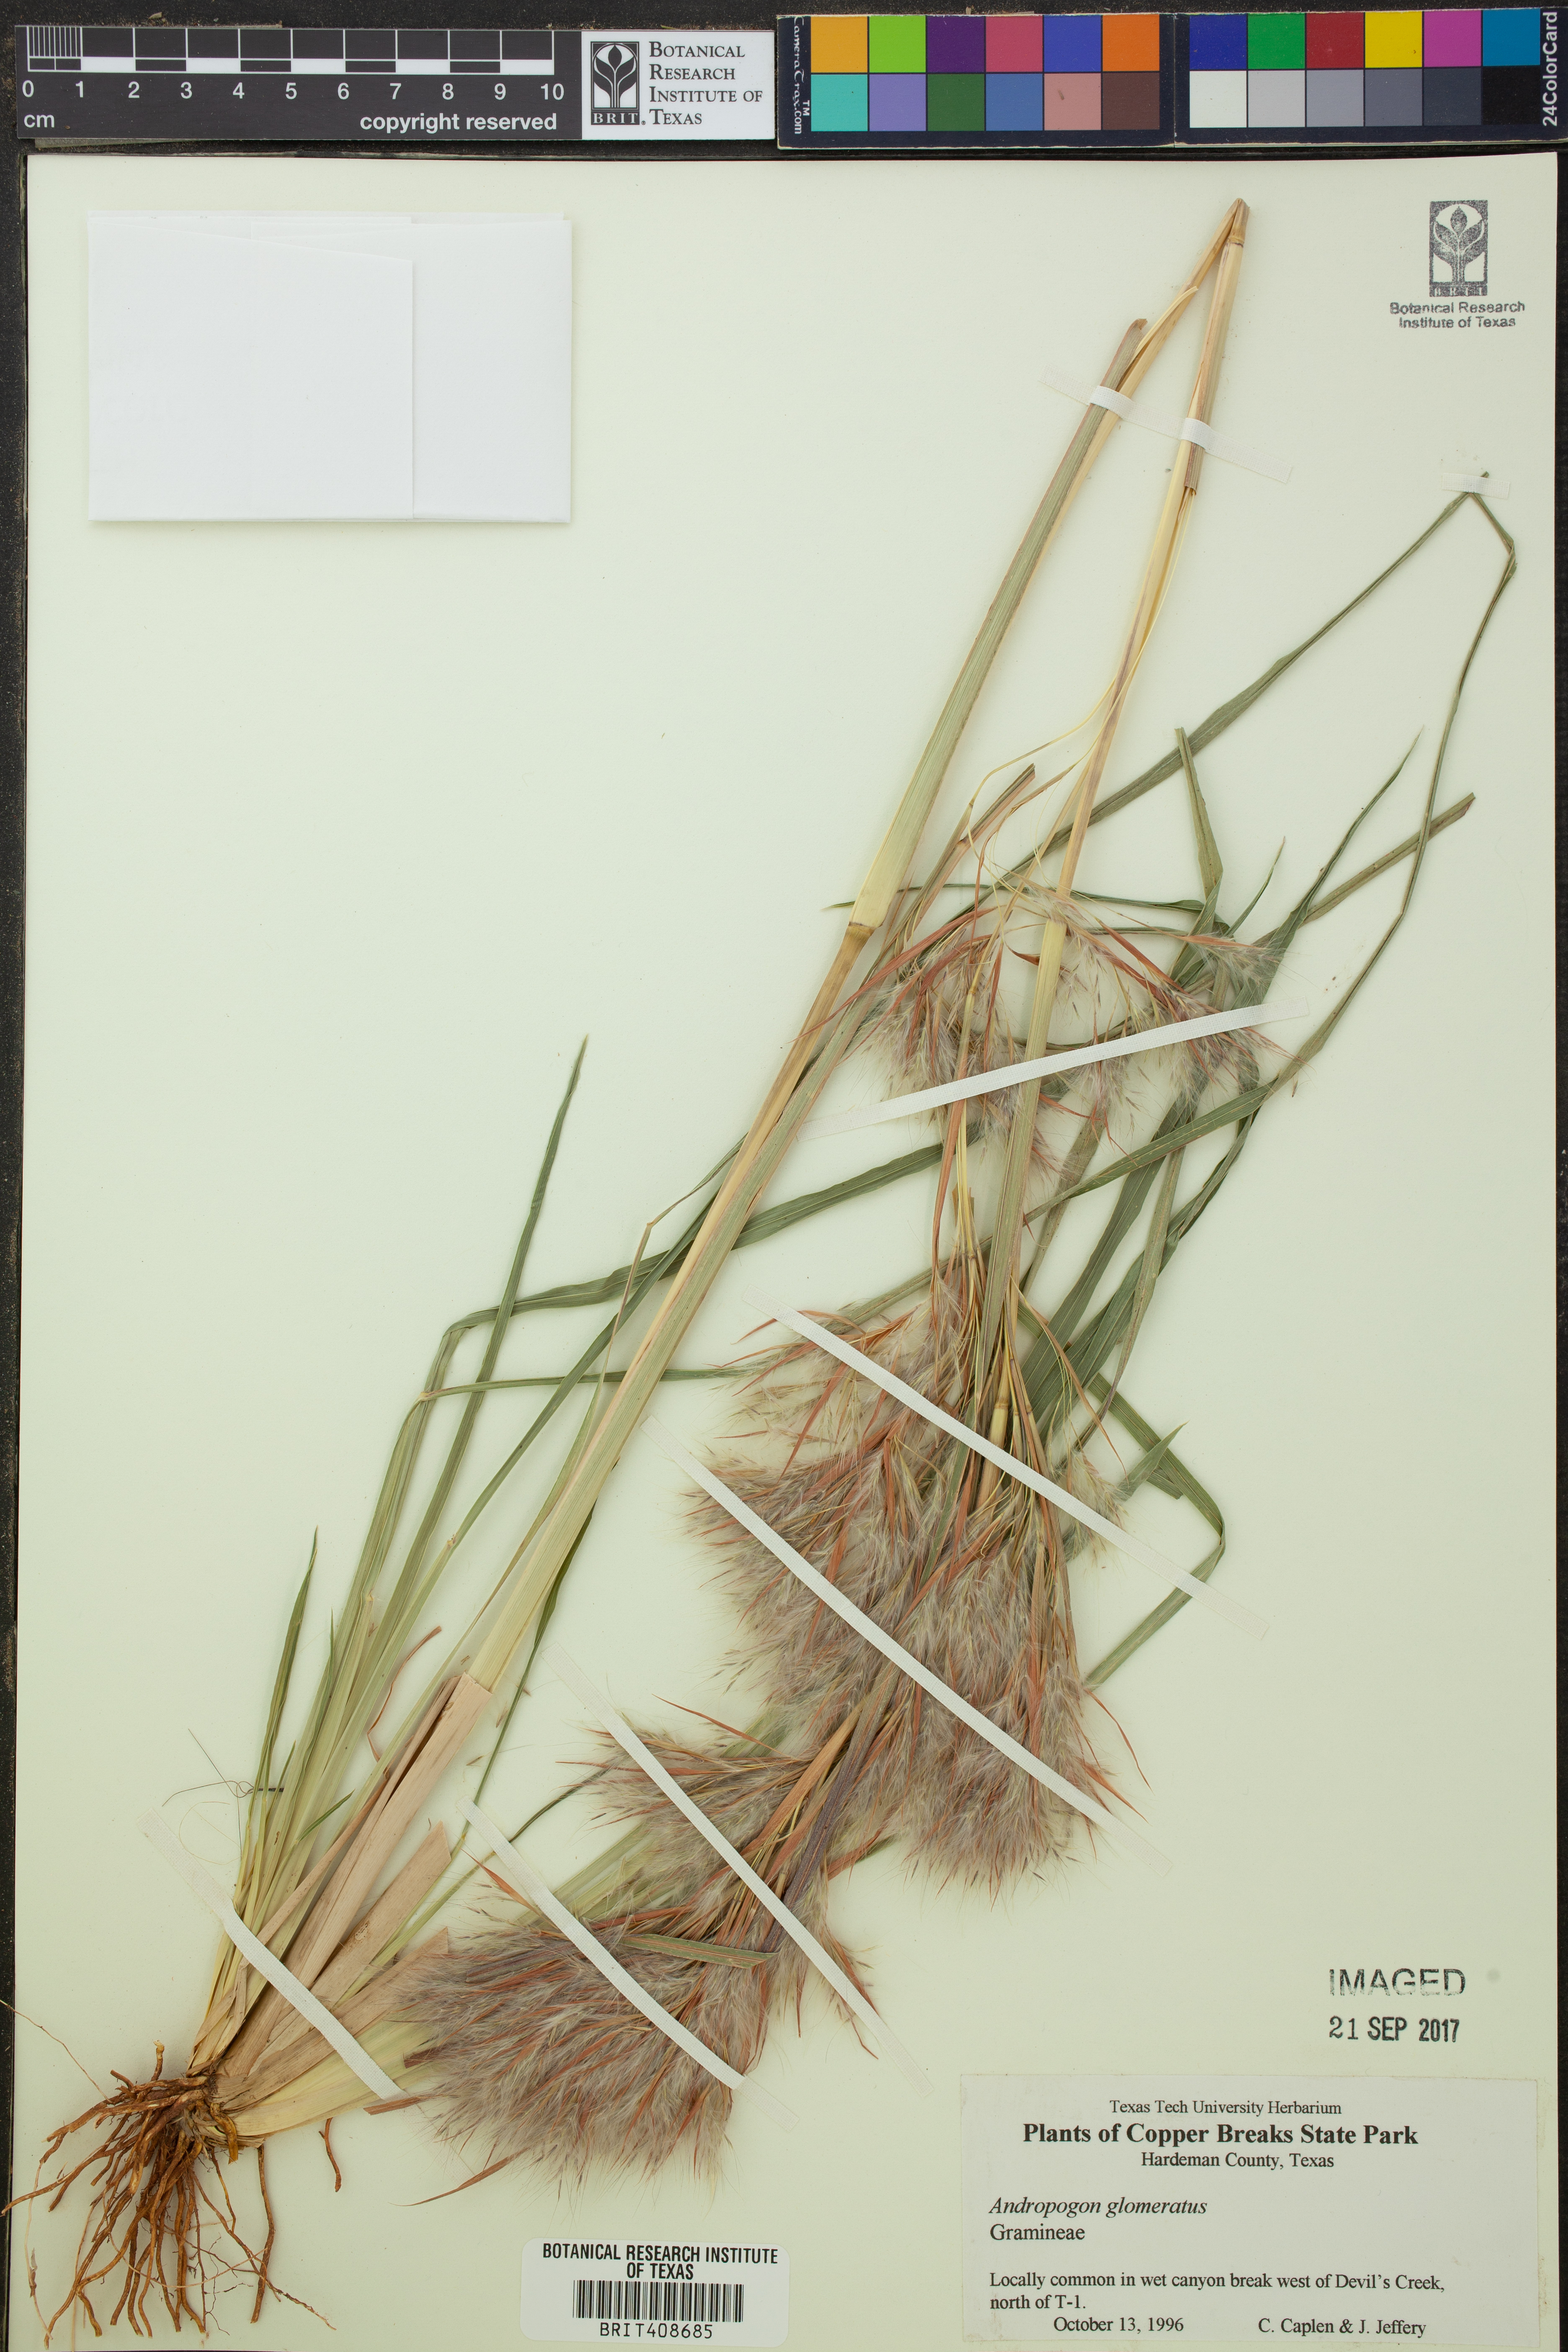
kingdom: Plantae
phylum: Tracheophyta
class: Liliopsida
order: Poales
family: Poaceae
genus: Andropogon
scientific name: Andropogon glomeratus
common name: Bushy beard grass
